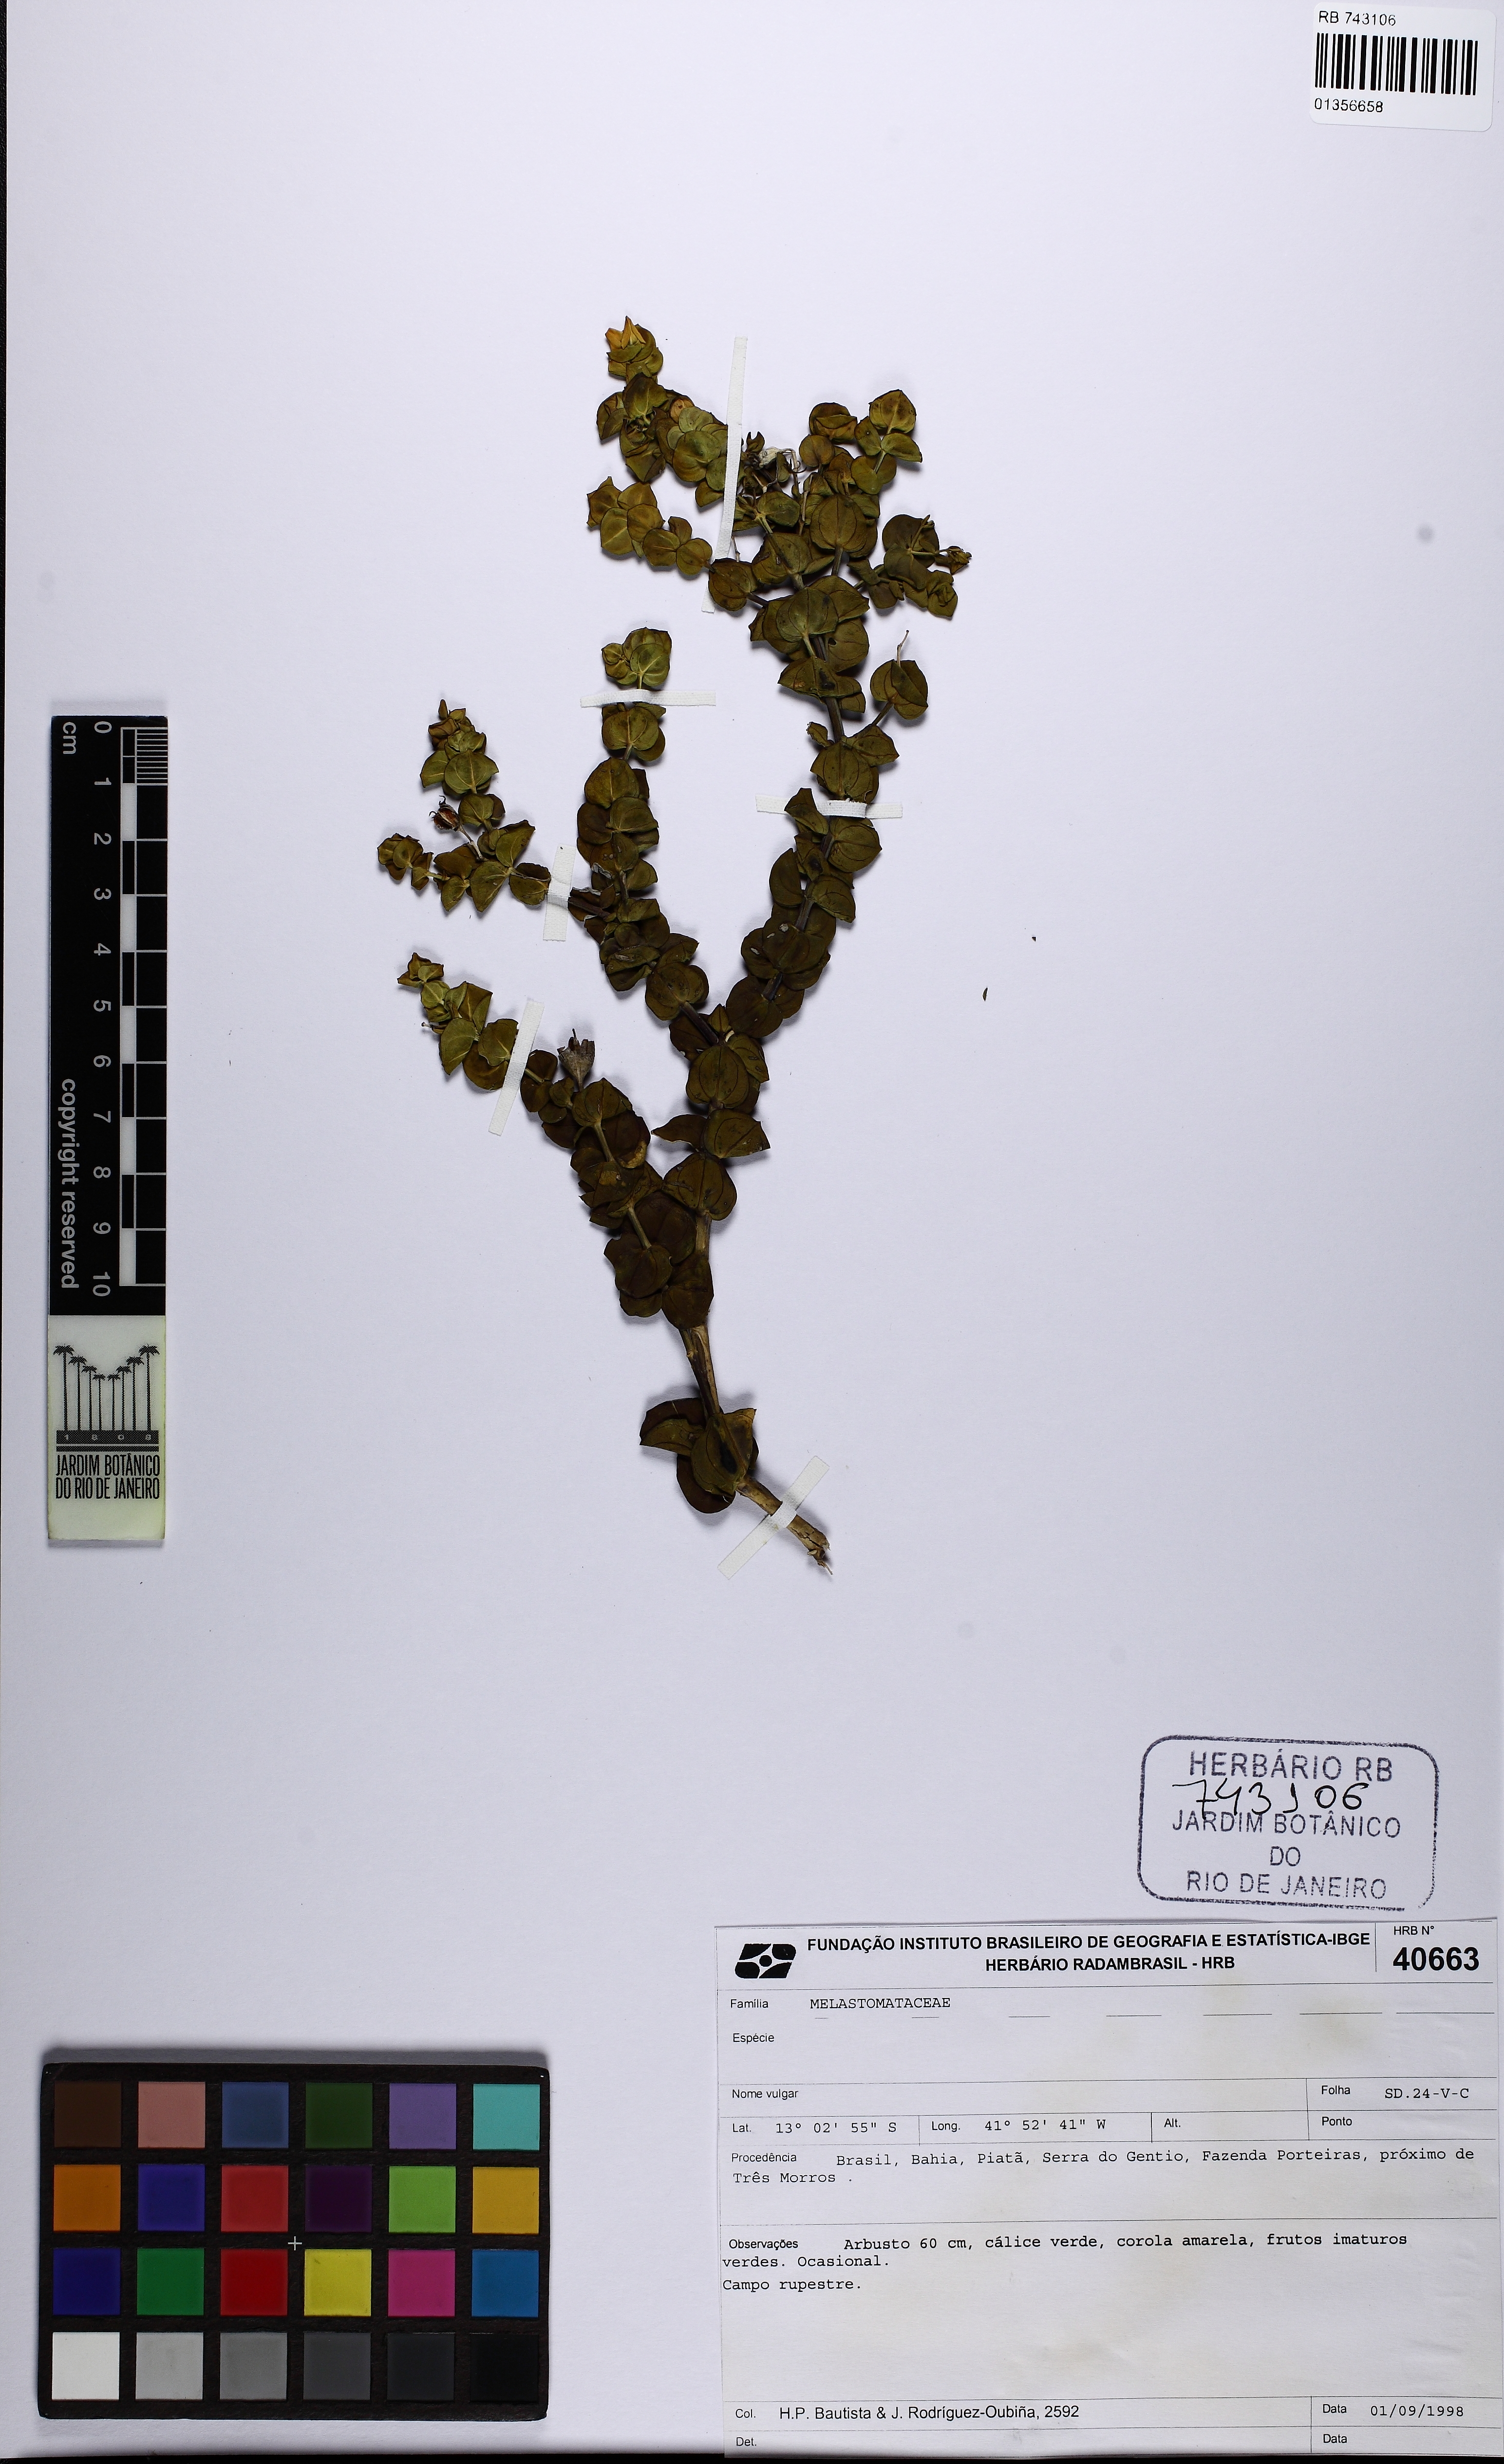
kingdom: Plantae
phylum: Tracheophyta
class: Magnoliopsida
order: Myrtales
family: Melastomataceae
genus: Cambessedesia
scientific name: Cambessedesia purpurata
